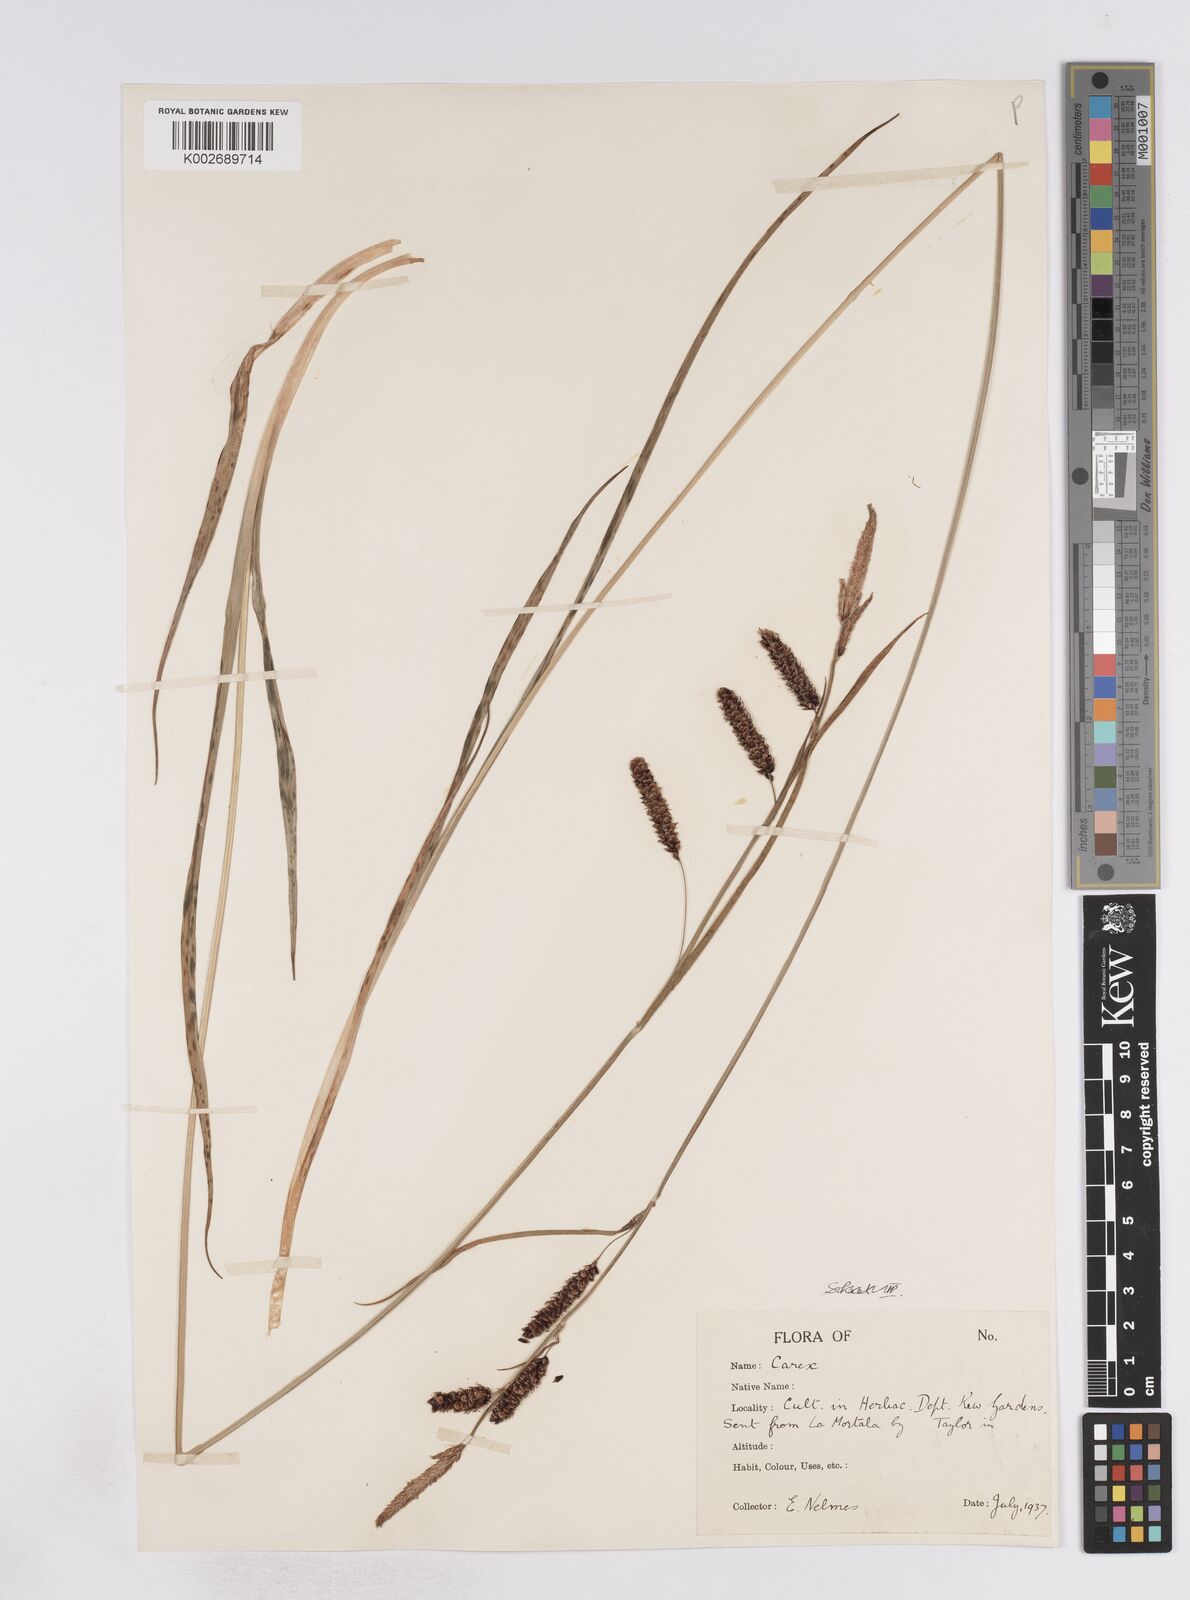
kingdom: Plantae
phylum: Tracheophyta
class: Liliopsida
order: Poales
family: Cyperaceae
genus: Carex
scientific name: Carex flacca
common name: Glaucous sedge
